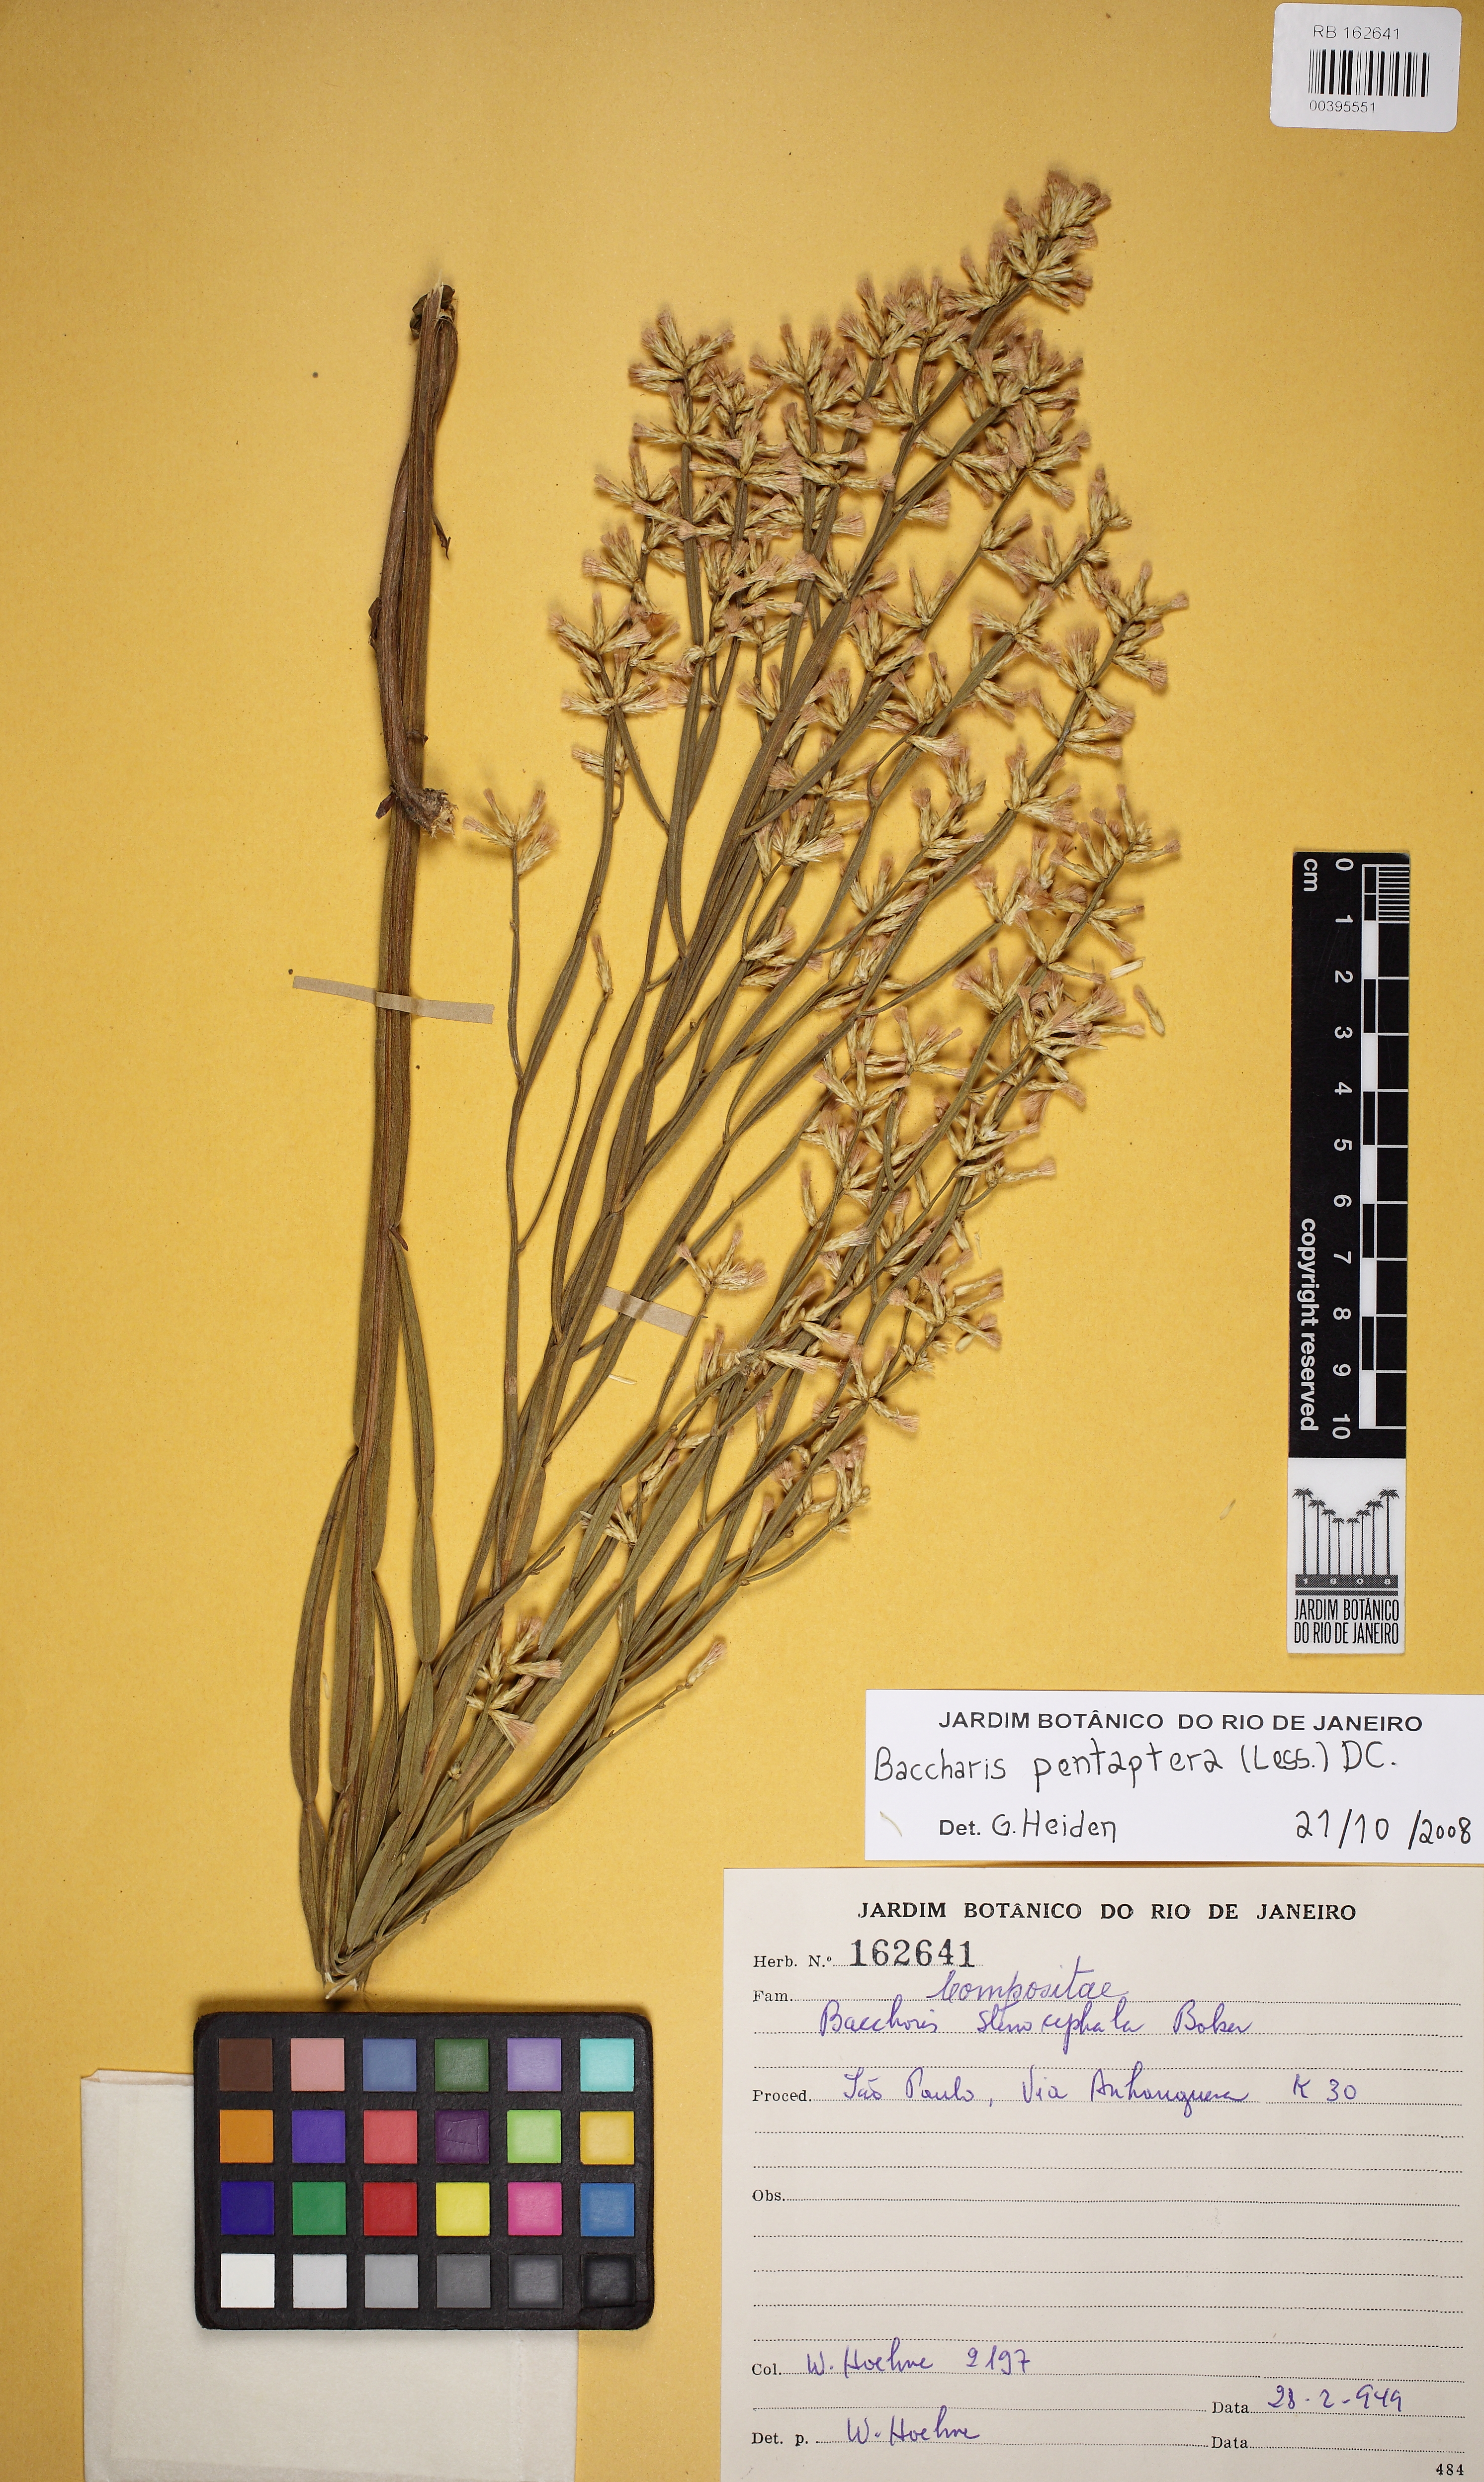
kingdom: Plantae
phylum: Tracheophyta
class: Magnoliopsida
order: Asterales
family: Asteraceae
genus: Baccharis
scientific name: Baccharis pentaptera
